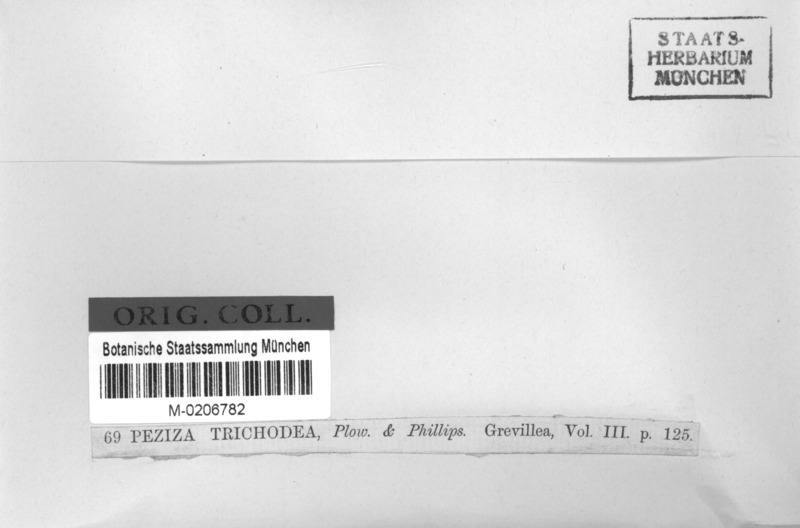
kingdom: Fungi
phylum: Ascomycota
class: Leotiomycetes
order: Helotiales
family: Hyaloscyphaceae
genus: Hyalopeziza
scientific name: Hyalopeziza trichodea
